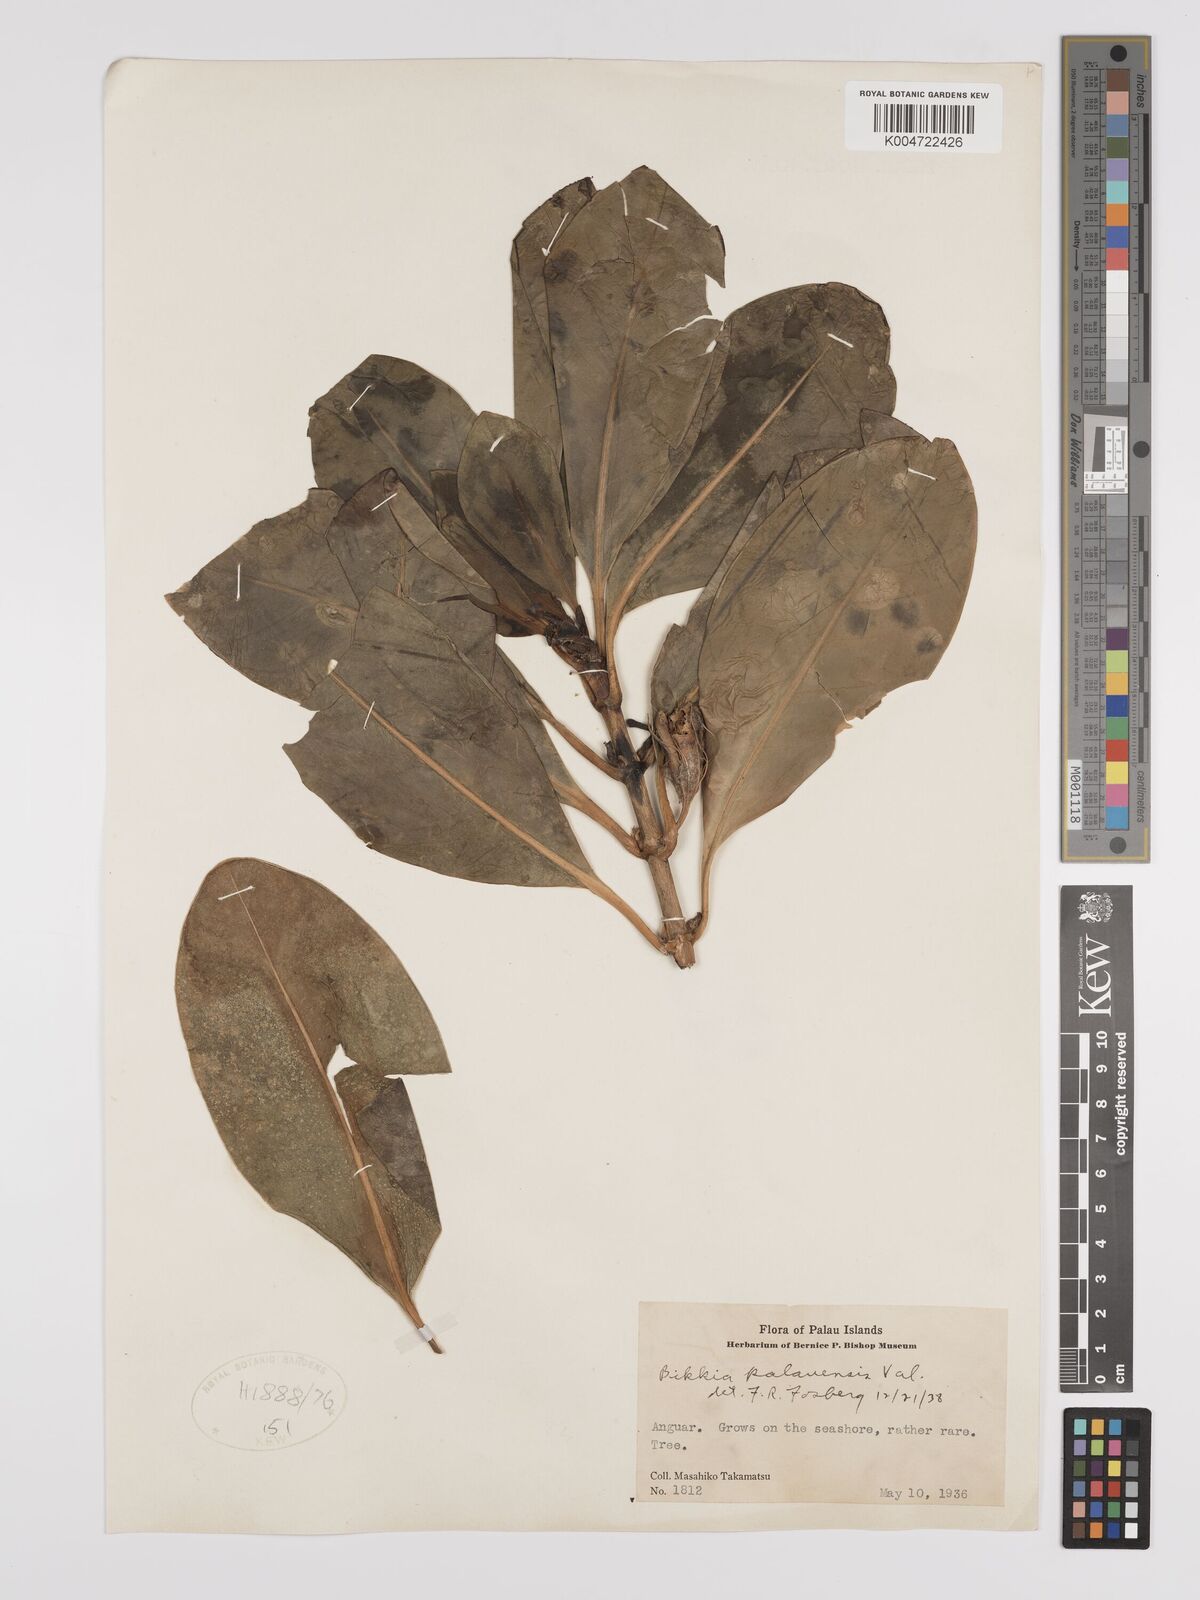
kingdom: Plantae
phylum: Tracheophyta
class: Magnoliopsida
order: Gentianales
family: Rubiaceae
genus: Bikkia
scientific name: Bikkia tetrandra
